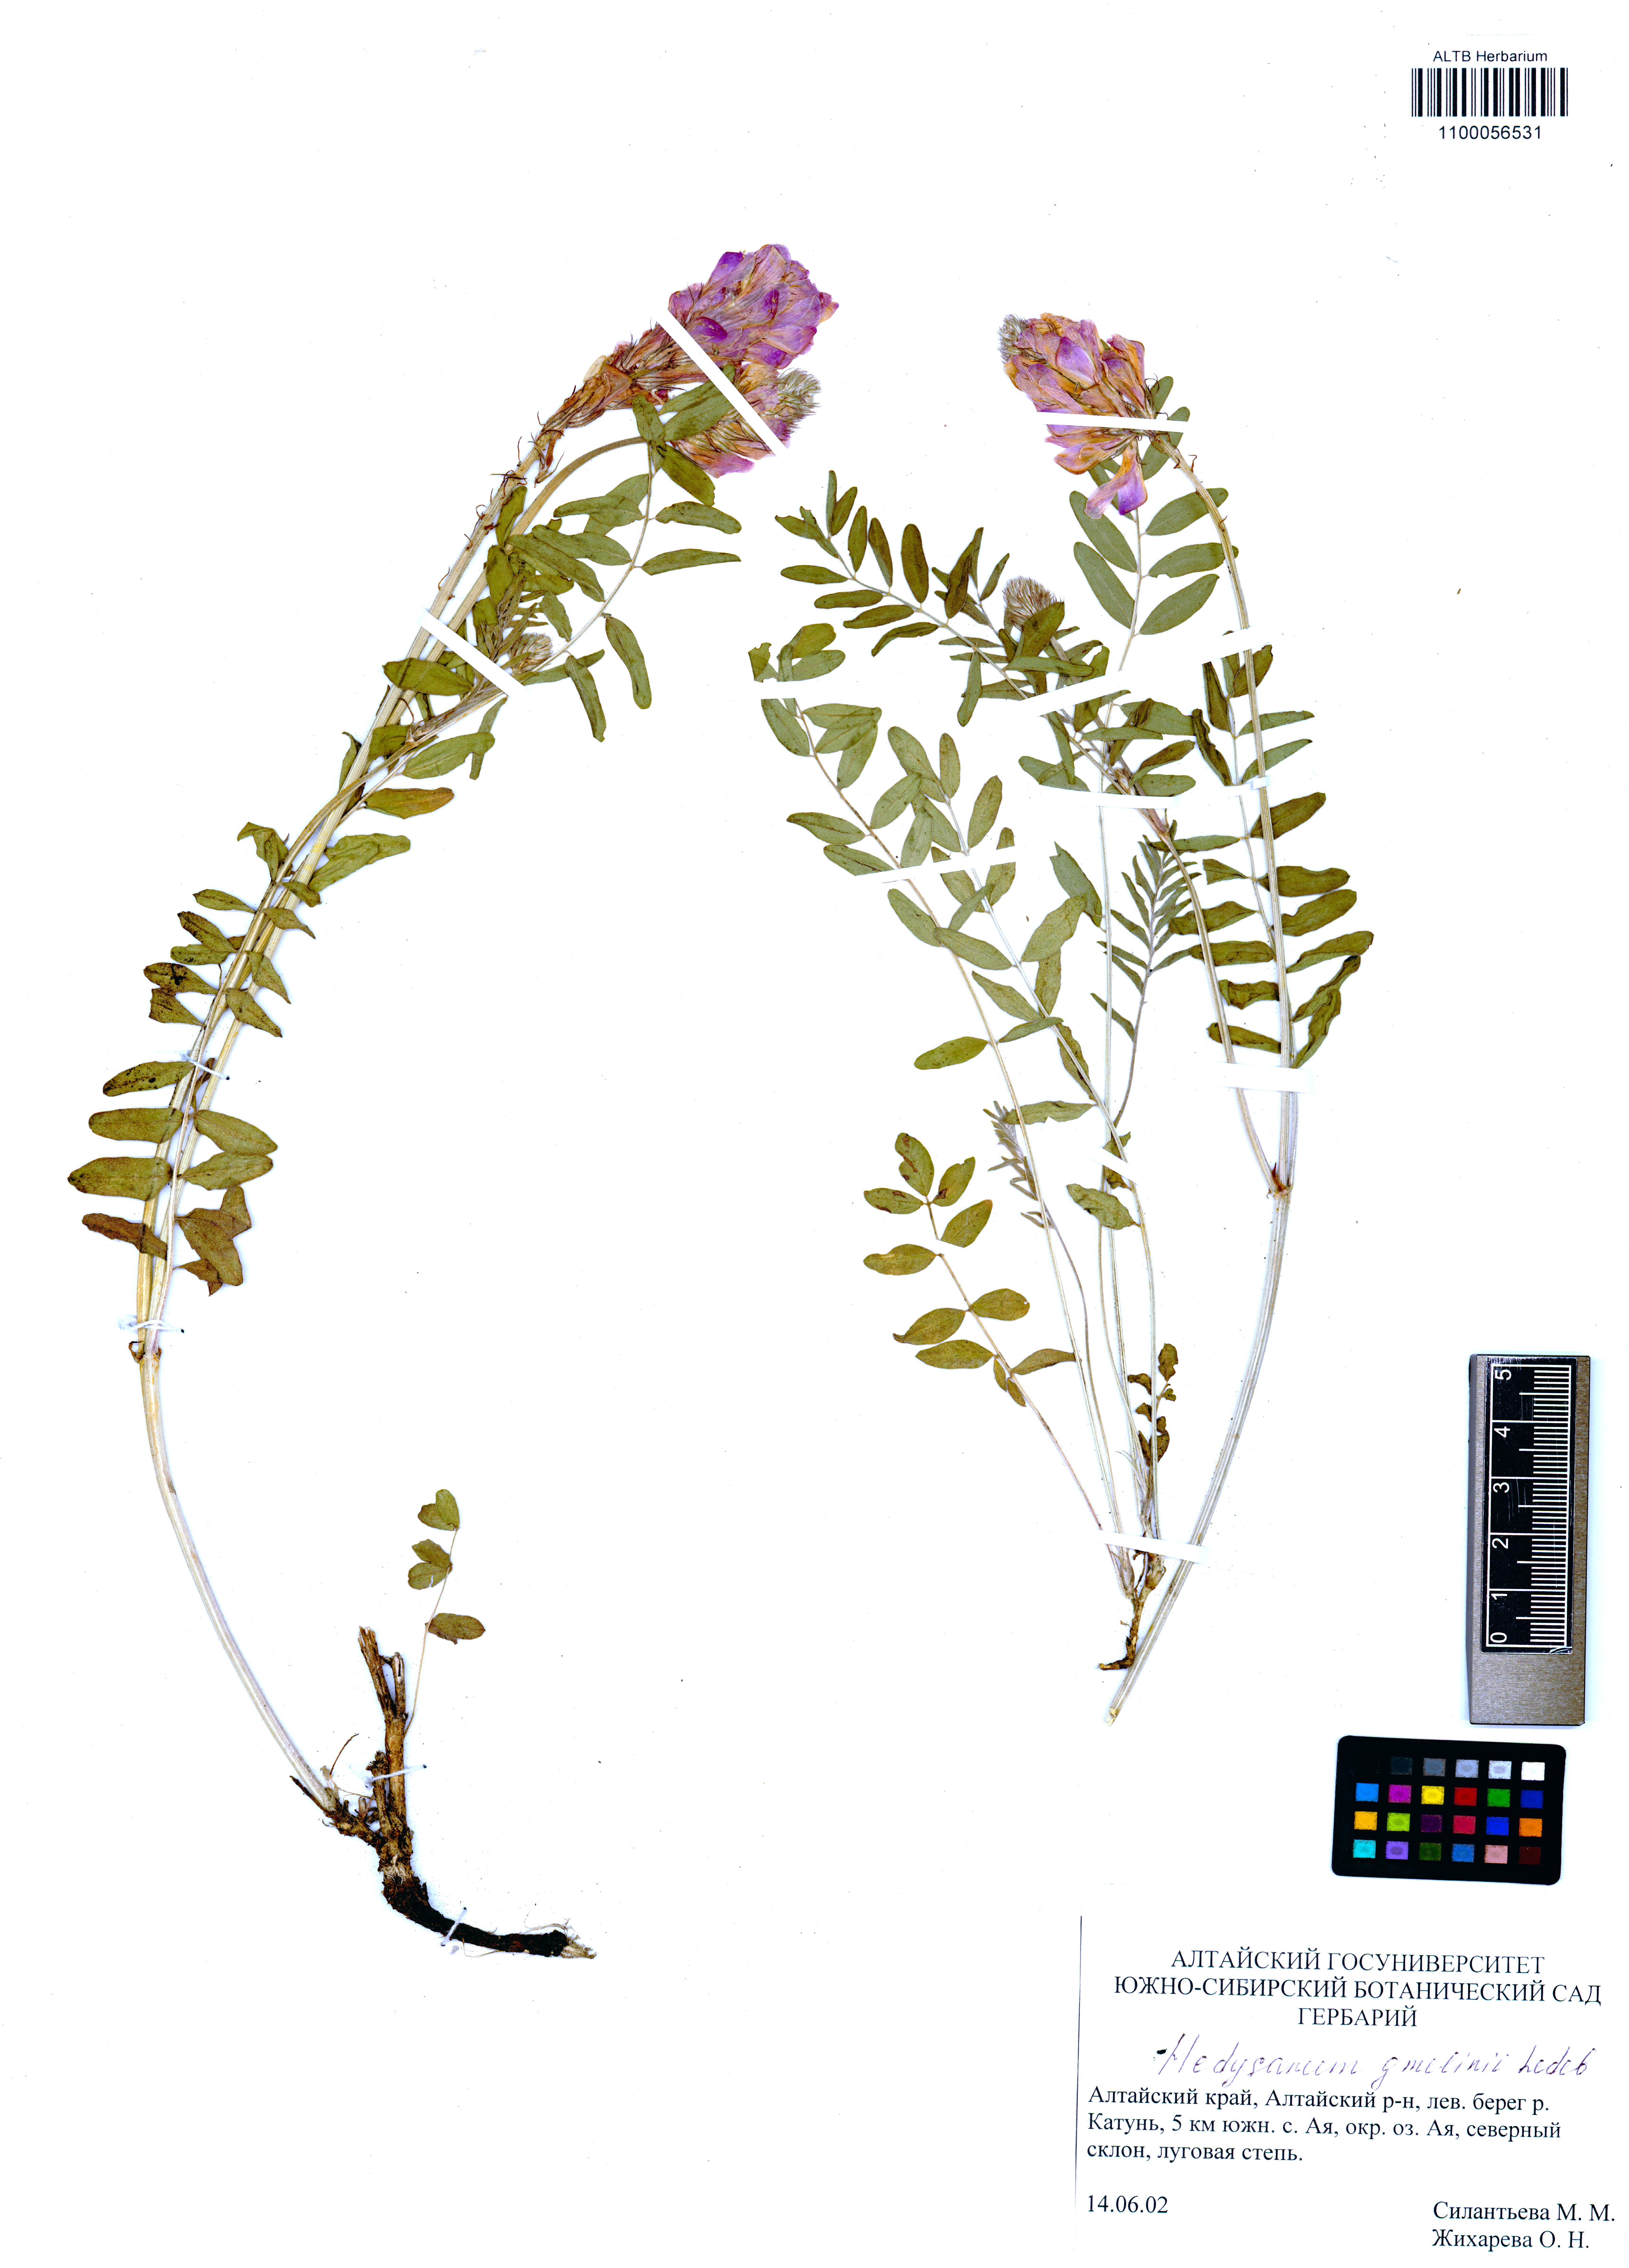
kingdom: Plantae
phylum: Tracheophyta
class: Magnoliopsida
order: Fabales
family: Fabaceae
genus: Hedysarum
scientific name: Hedysarum gmelinii
